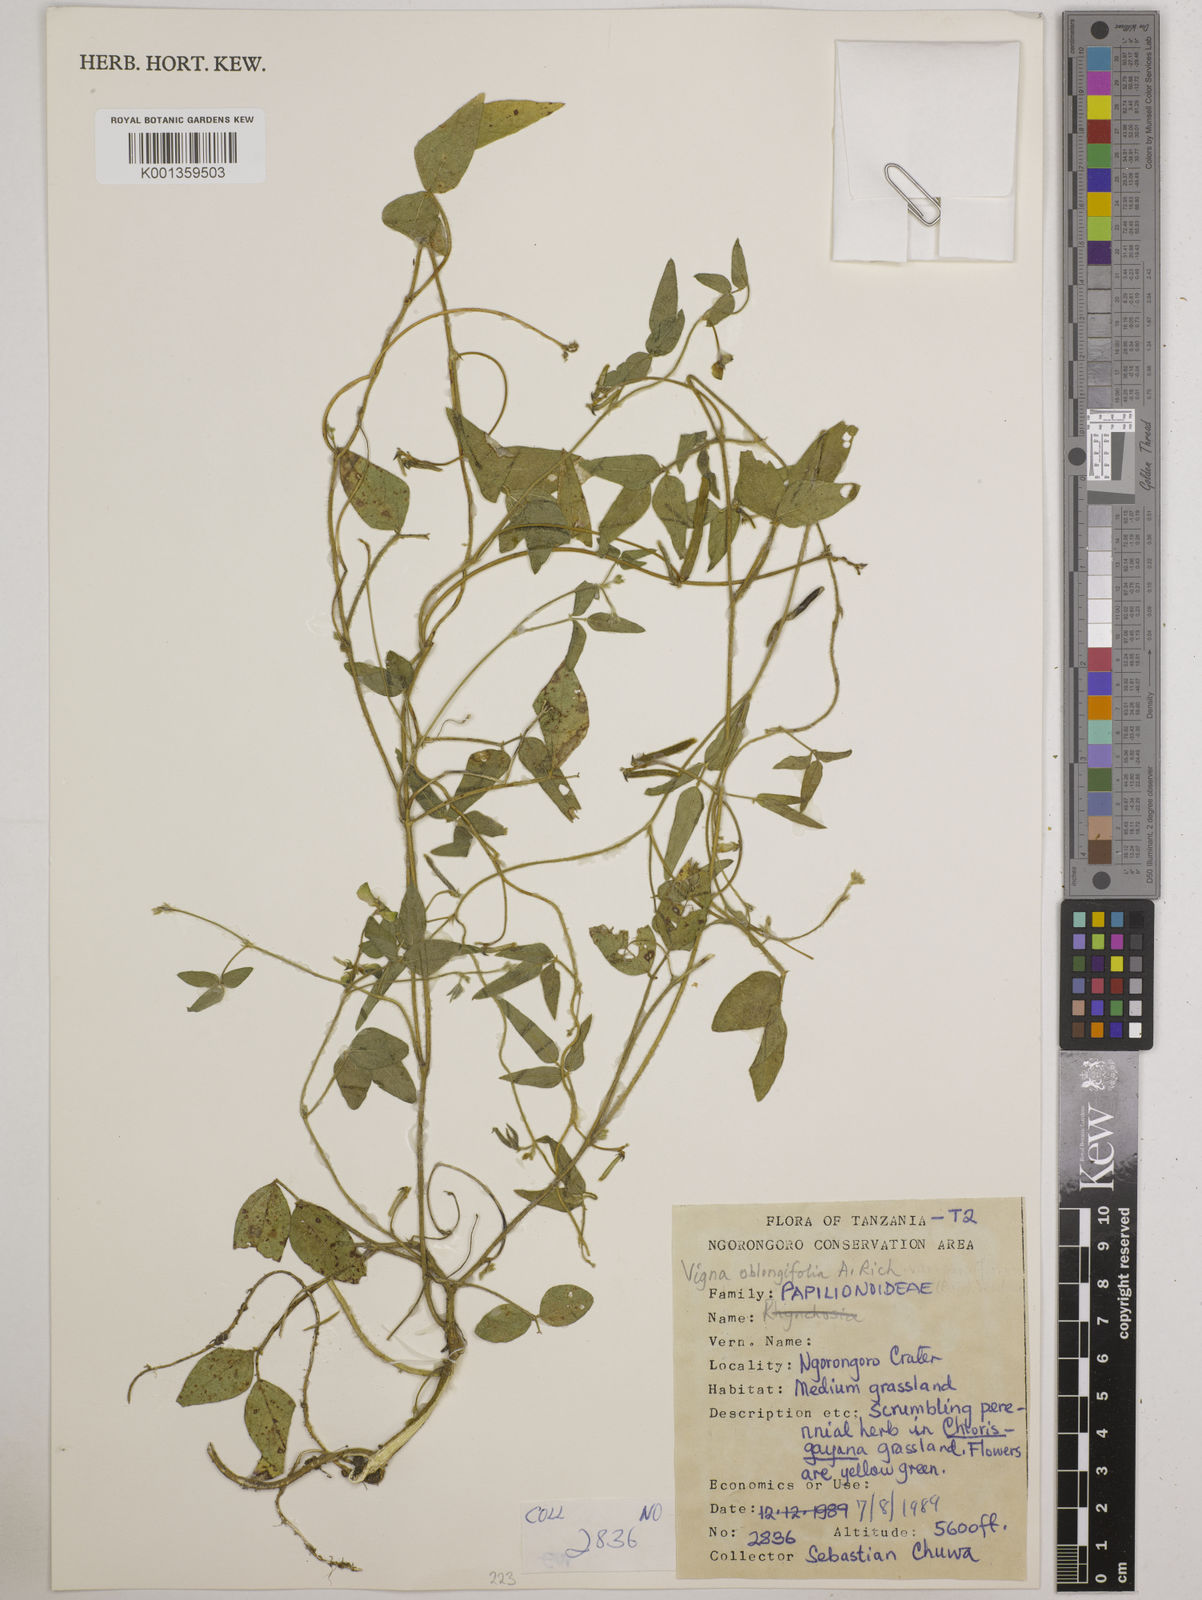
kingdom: Plantae
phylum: Tracheophyta
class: Magnoliopsida
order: Fabales
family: Fabaceae
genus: Vigna
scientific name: Vigna oblongifolia
